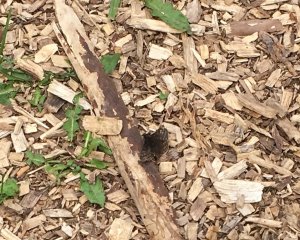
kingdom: Animalia
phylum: Arthropoda
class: Insecta
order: Lepidoptera
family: Hesperiidae
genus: Gesta
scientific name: Gesta
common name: Juvenal's Duskywing
